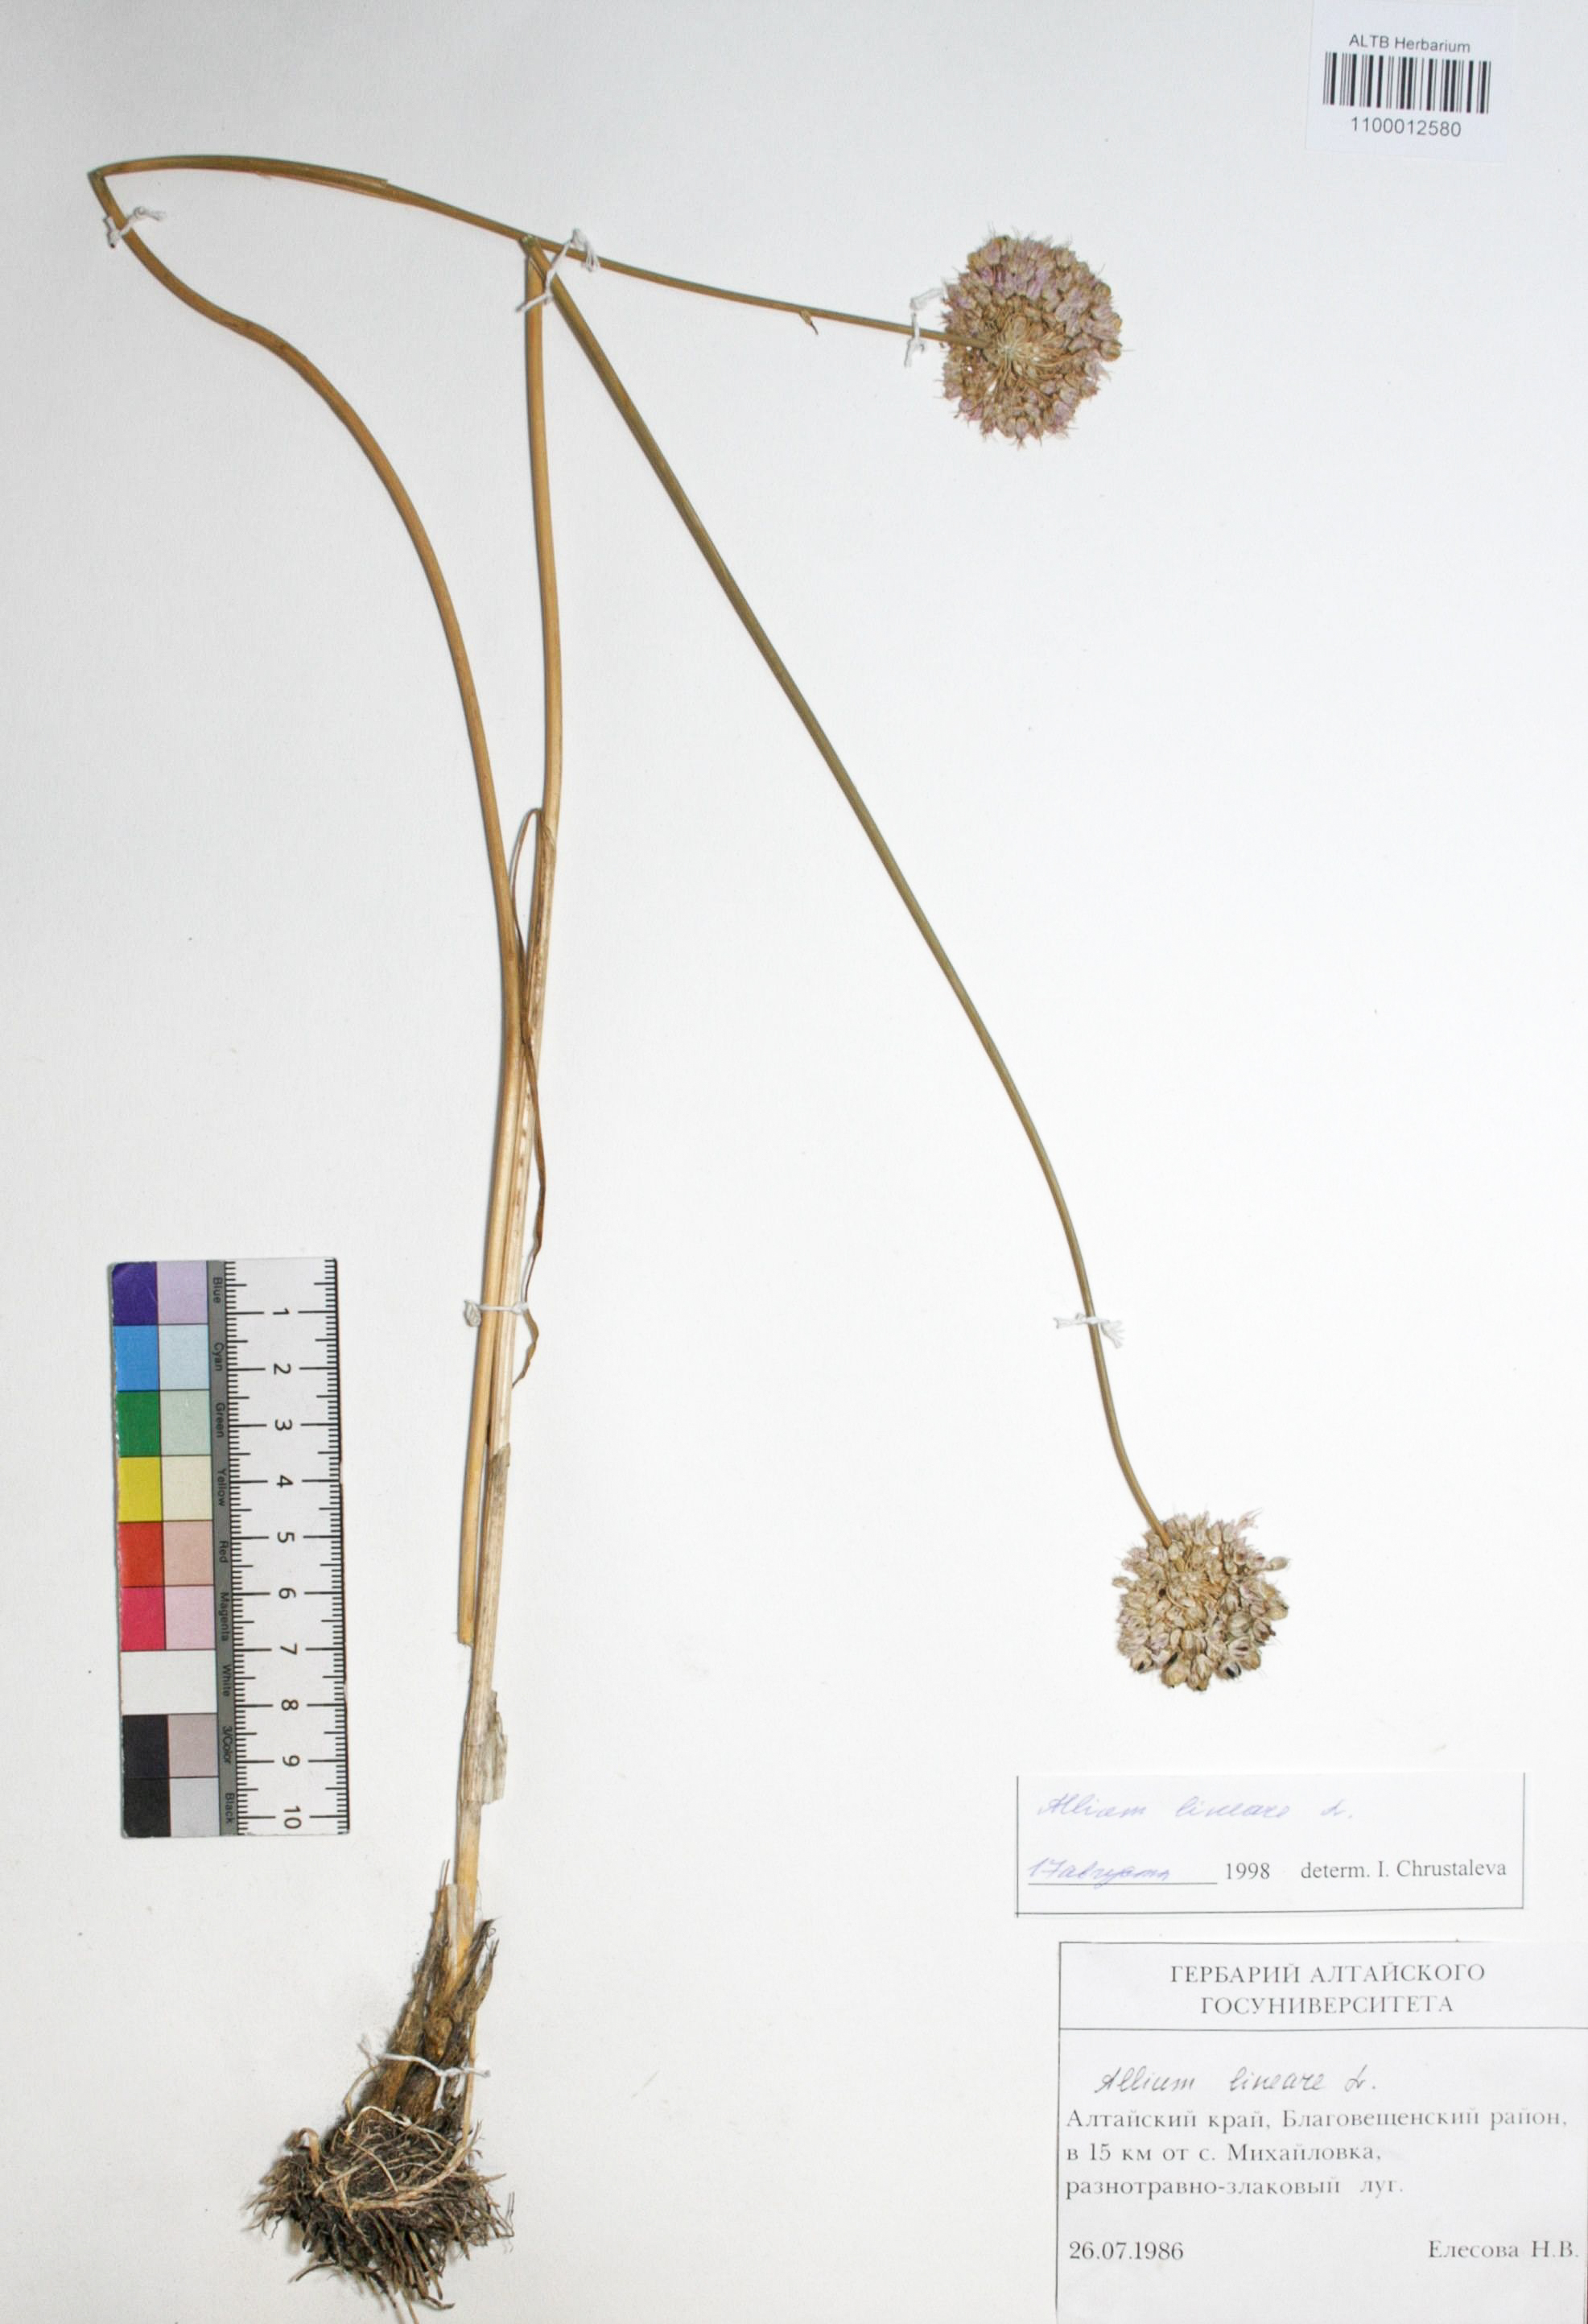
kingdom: Plantae
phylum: Tracheophyta
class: Liliopsida
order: Asparagales
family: Amaryllidaceae
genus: Allium
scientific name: Allium lineare
